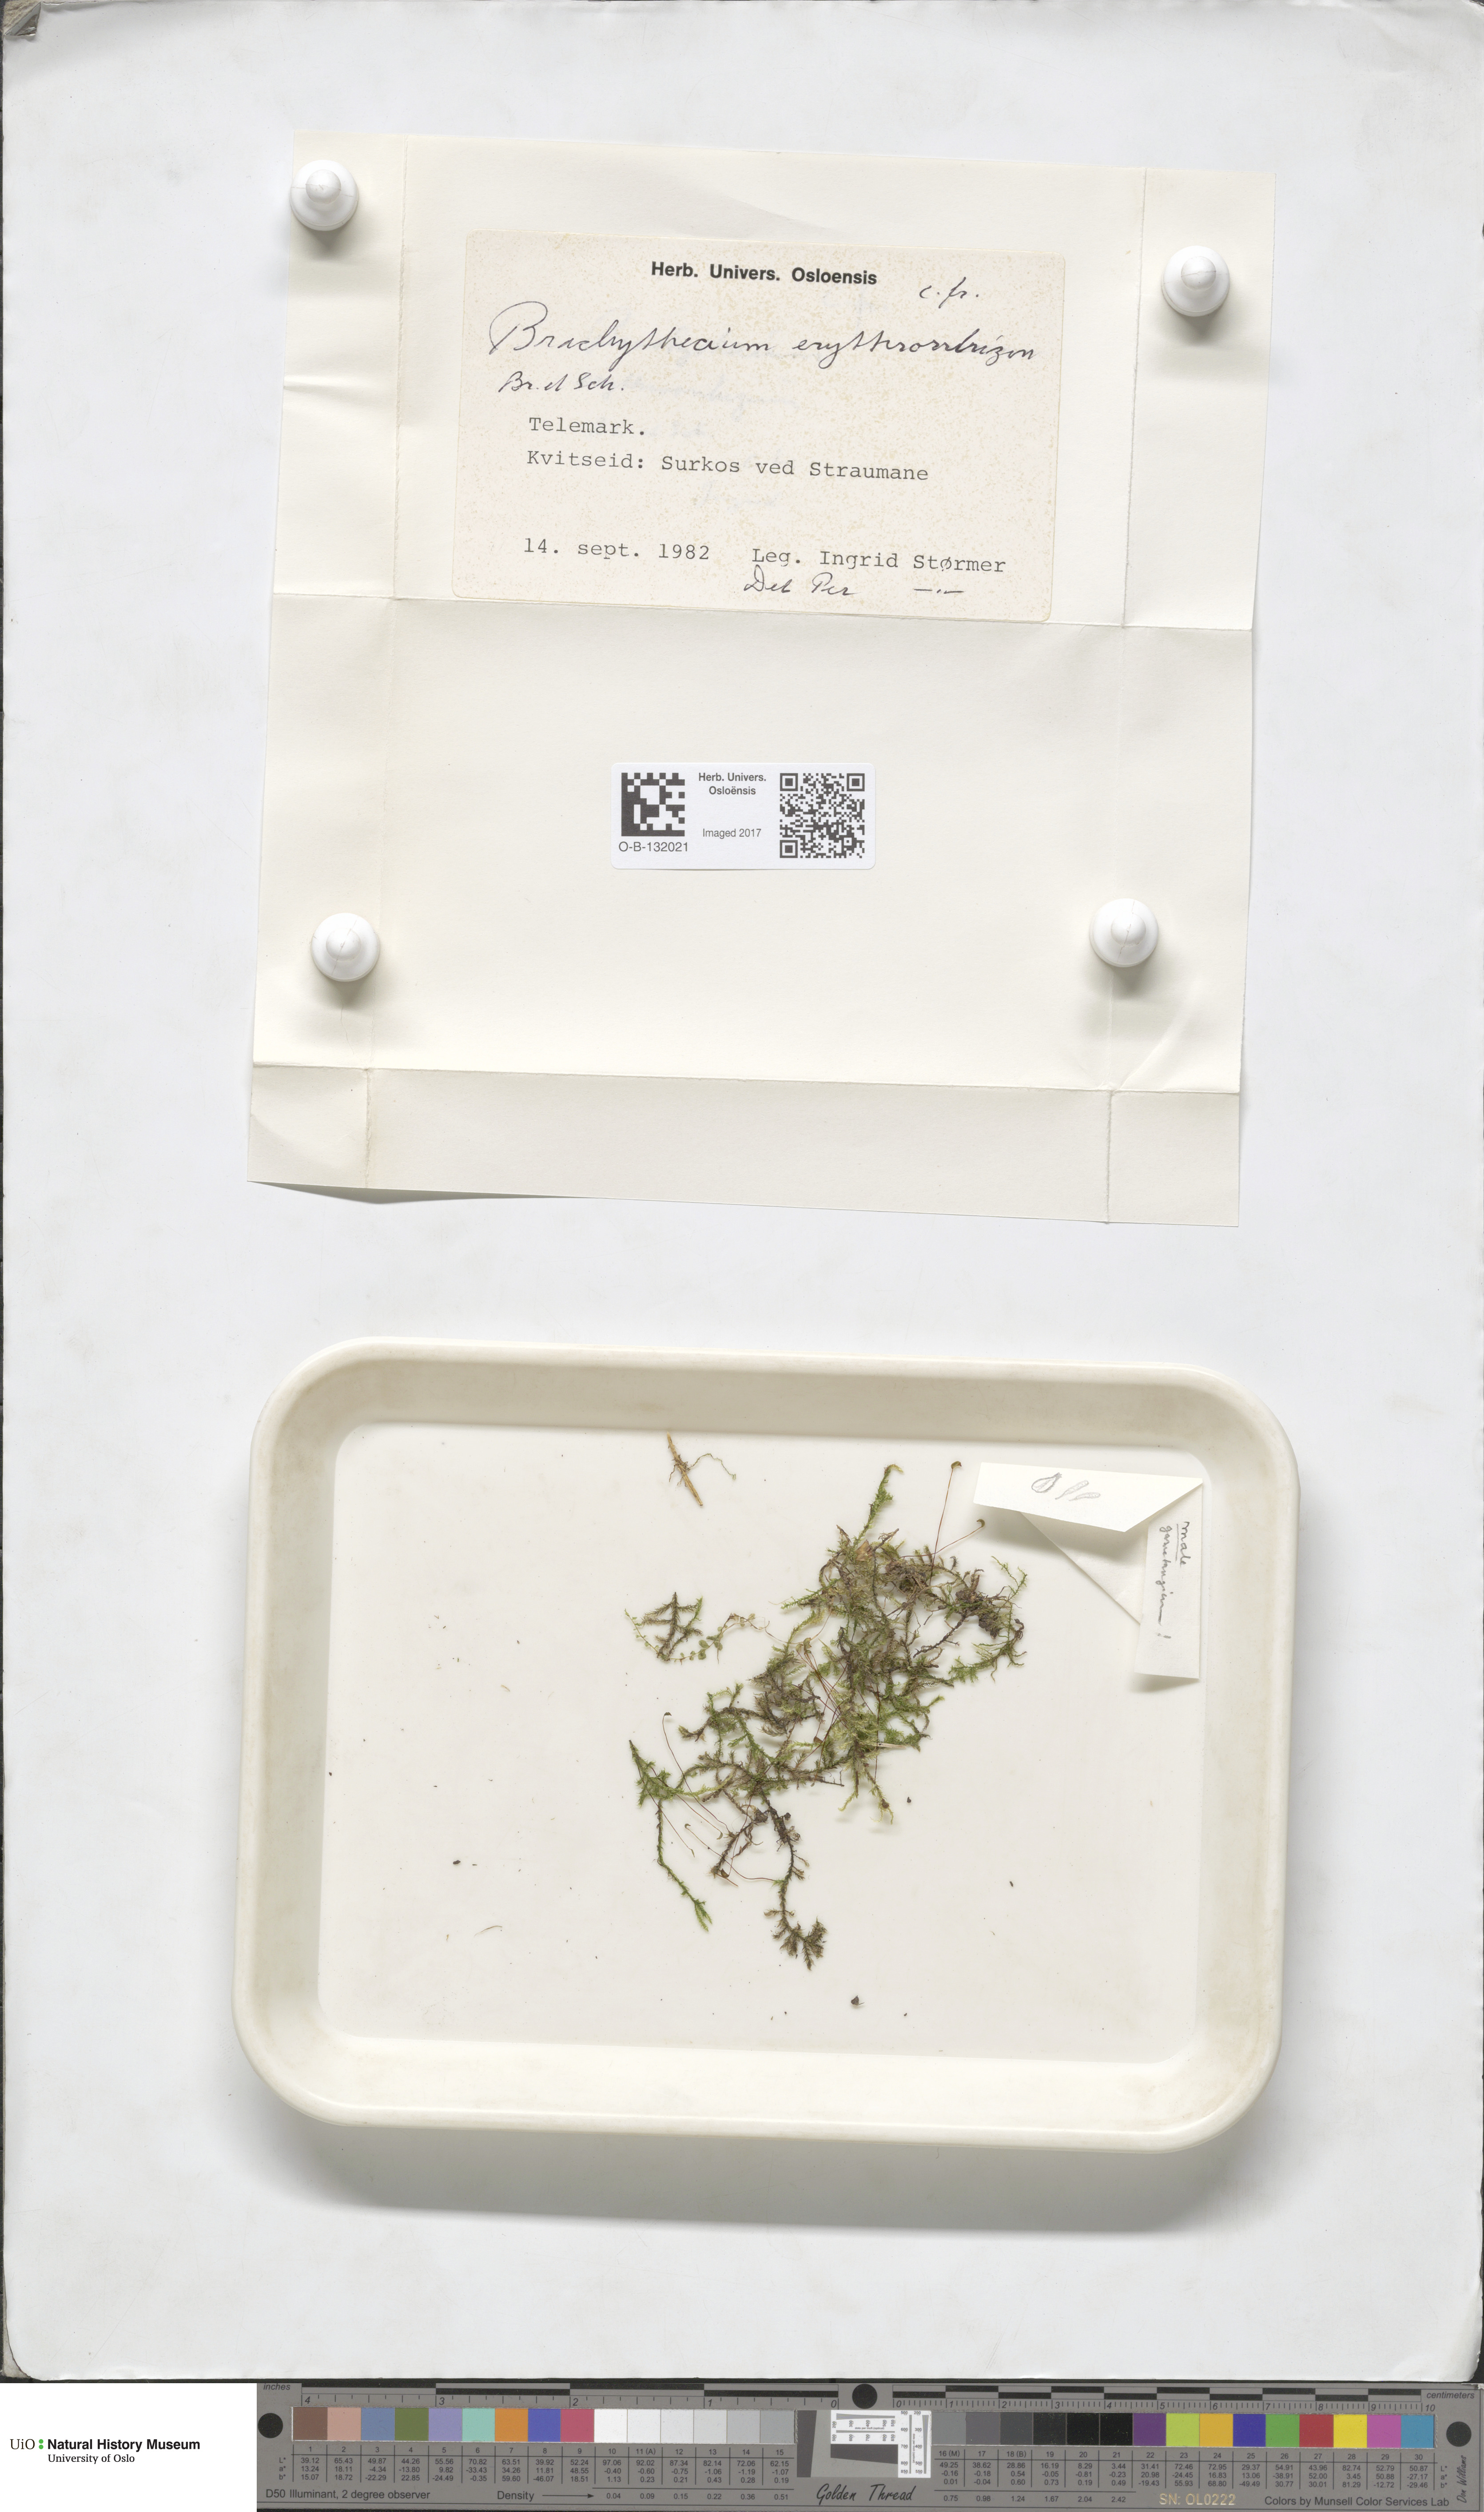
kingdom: Plantae
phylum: Bryophyta
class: Bryopsida
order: Hypnales
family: Brachytheciaceae
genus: Brachythecium
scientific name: Brachythecium erythrorrhizon
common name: Taiga ragged moss
